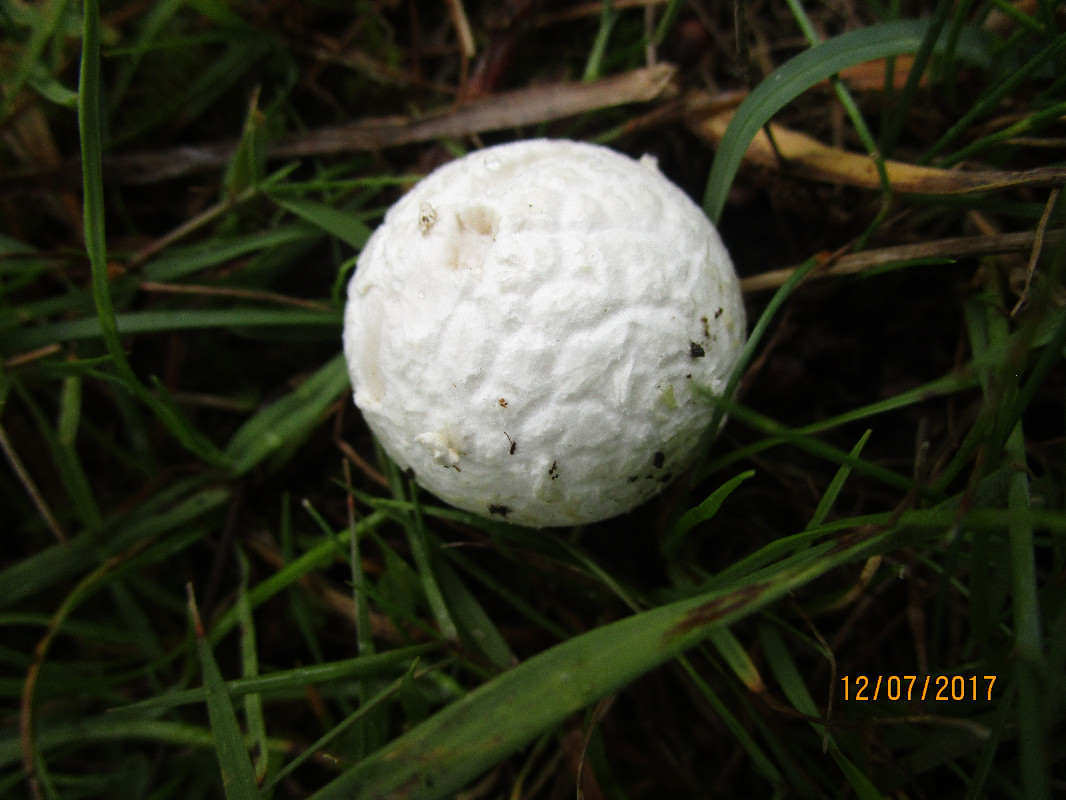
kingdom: Fungi
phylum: Basidiomycota
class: Agaricomycetes
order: Agaricales
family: Lycoperdaceae
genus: Bovista
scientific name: Bovista
